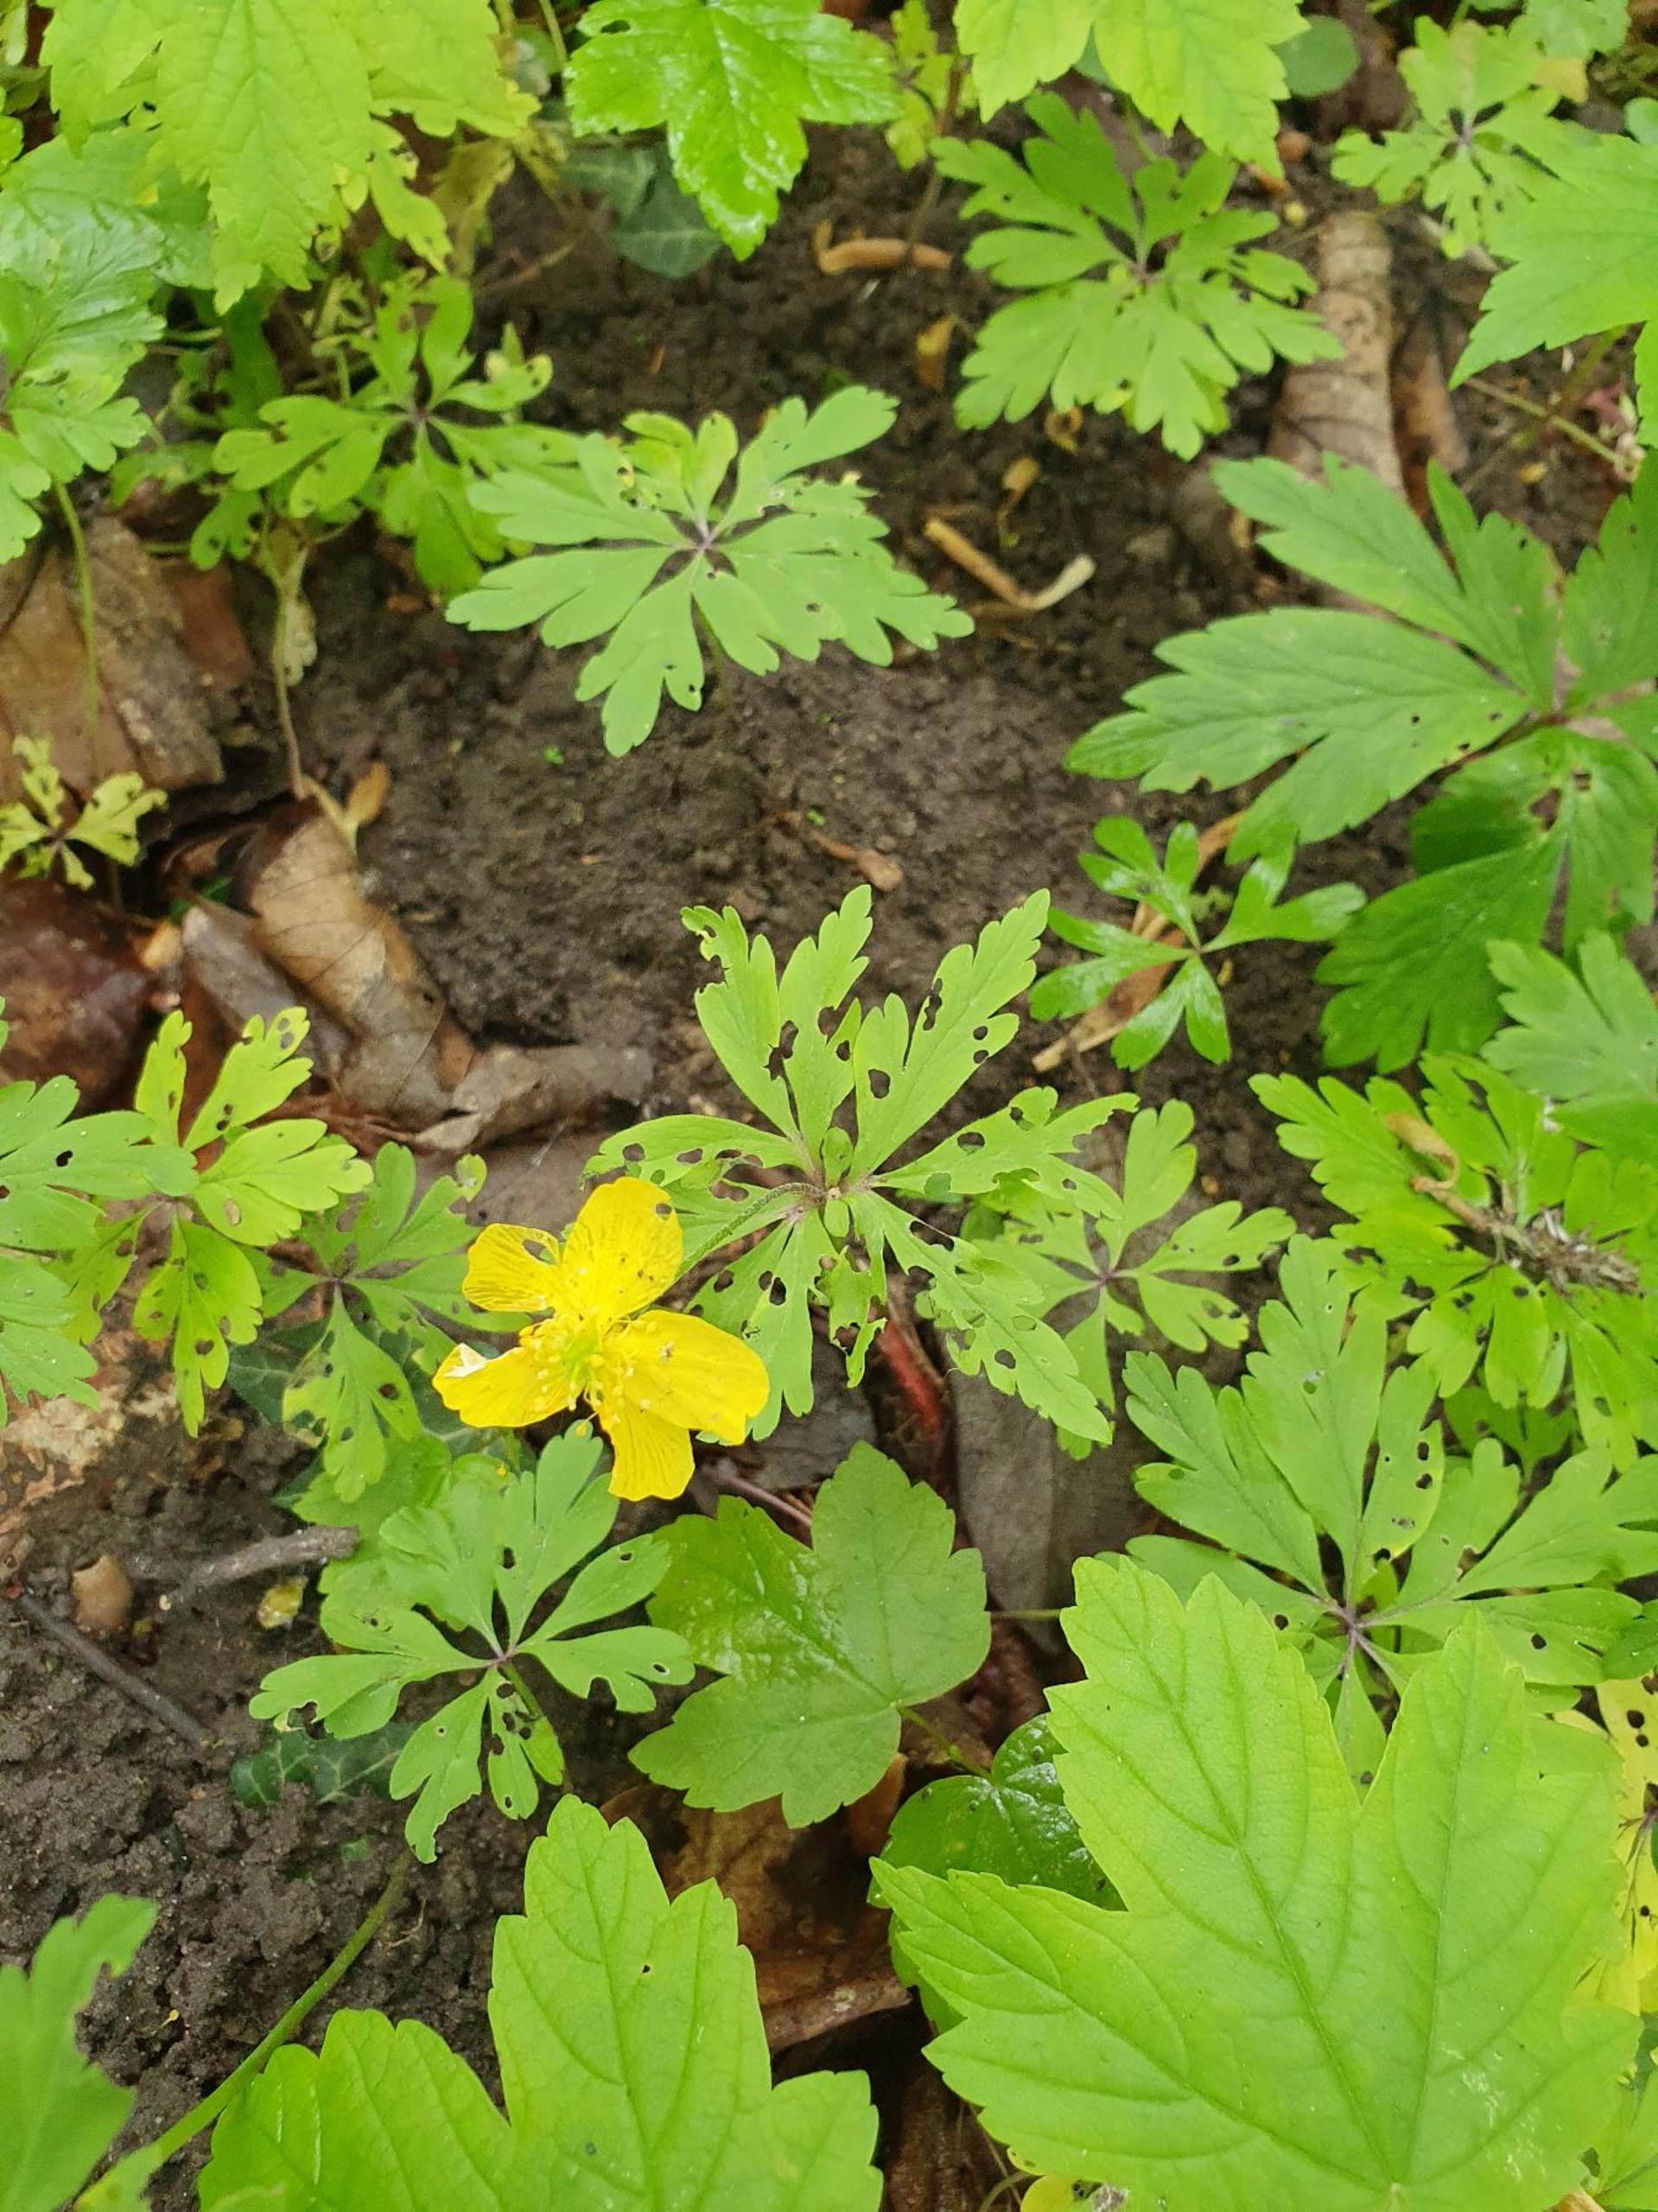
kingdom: Plantae
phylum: Tracheophyta
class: Magnoliopsida
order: Ranunculales
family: Ranunculaceae
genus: Anemone
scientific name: Anemone ranunculoides
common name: Gul anemone
